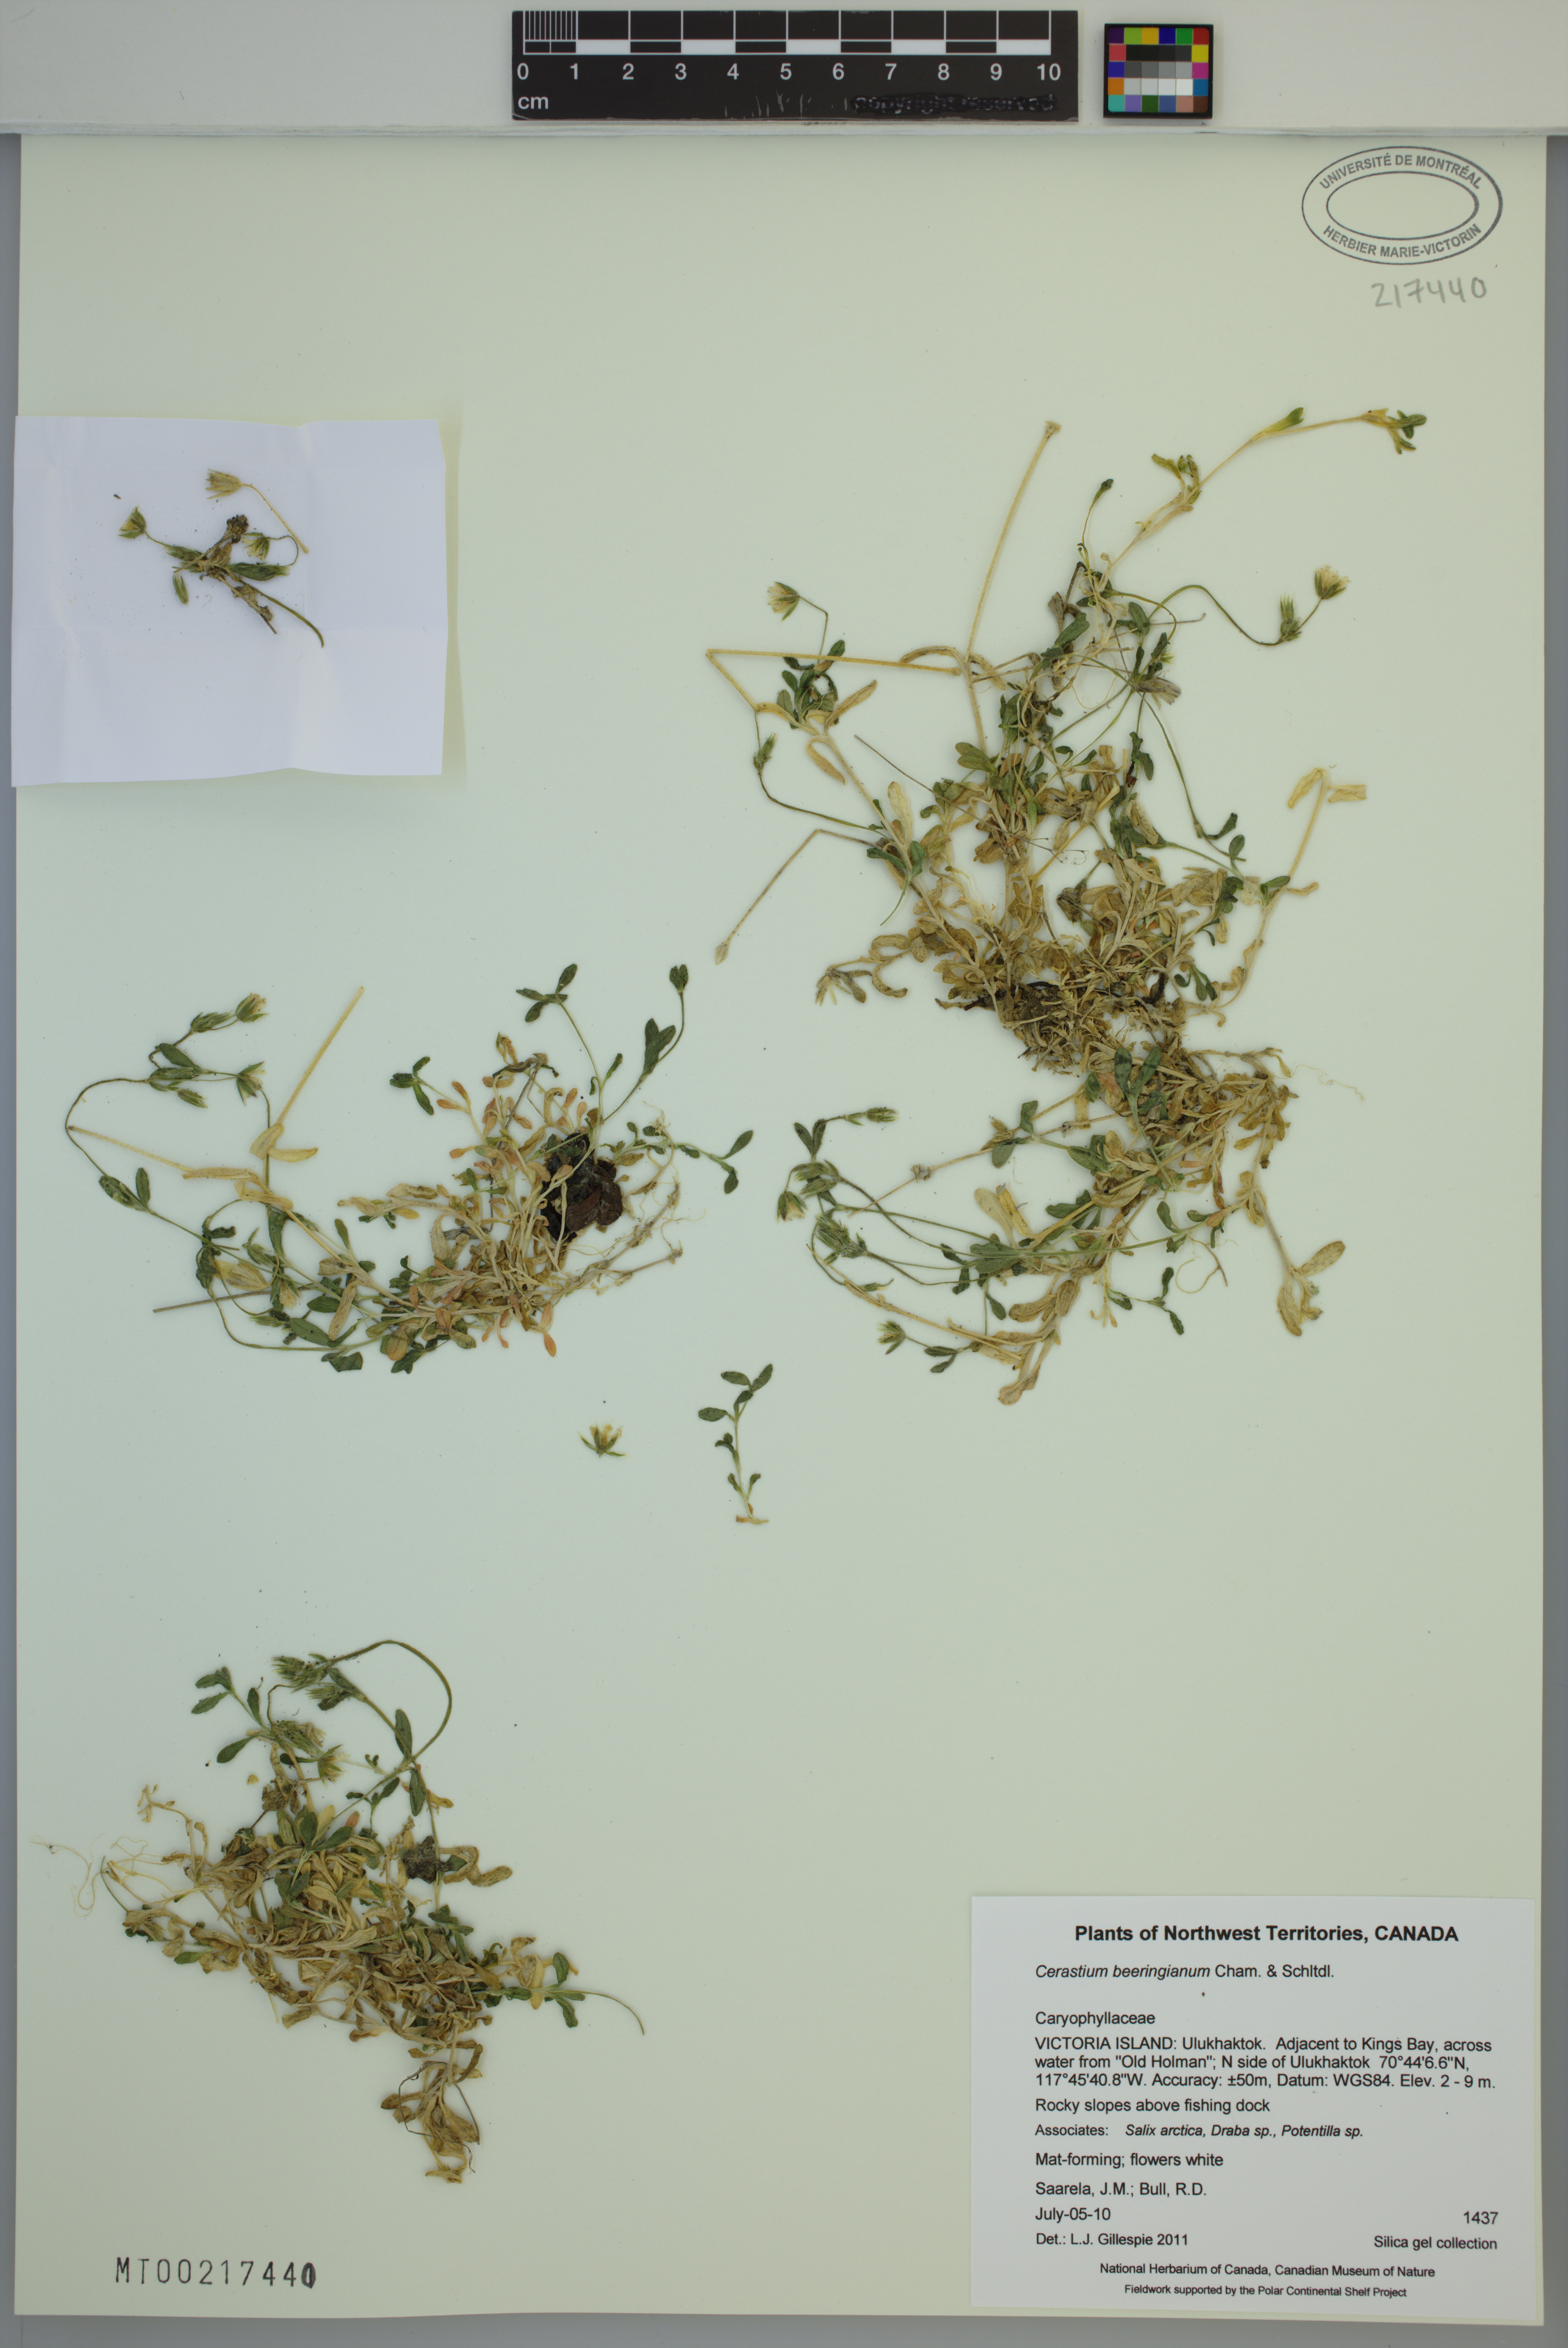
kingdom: Plantae
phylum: Tracheophyta
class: Magnoliopsida
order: Caryophyllales
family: Caryophyllaceae
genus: Cerastium
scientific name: Cerastium beeringianum
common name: Bering mouse-ear chickweed
